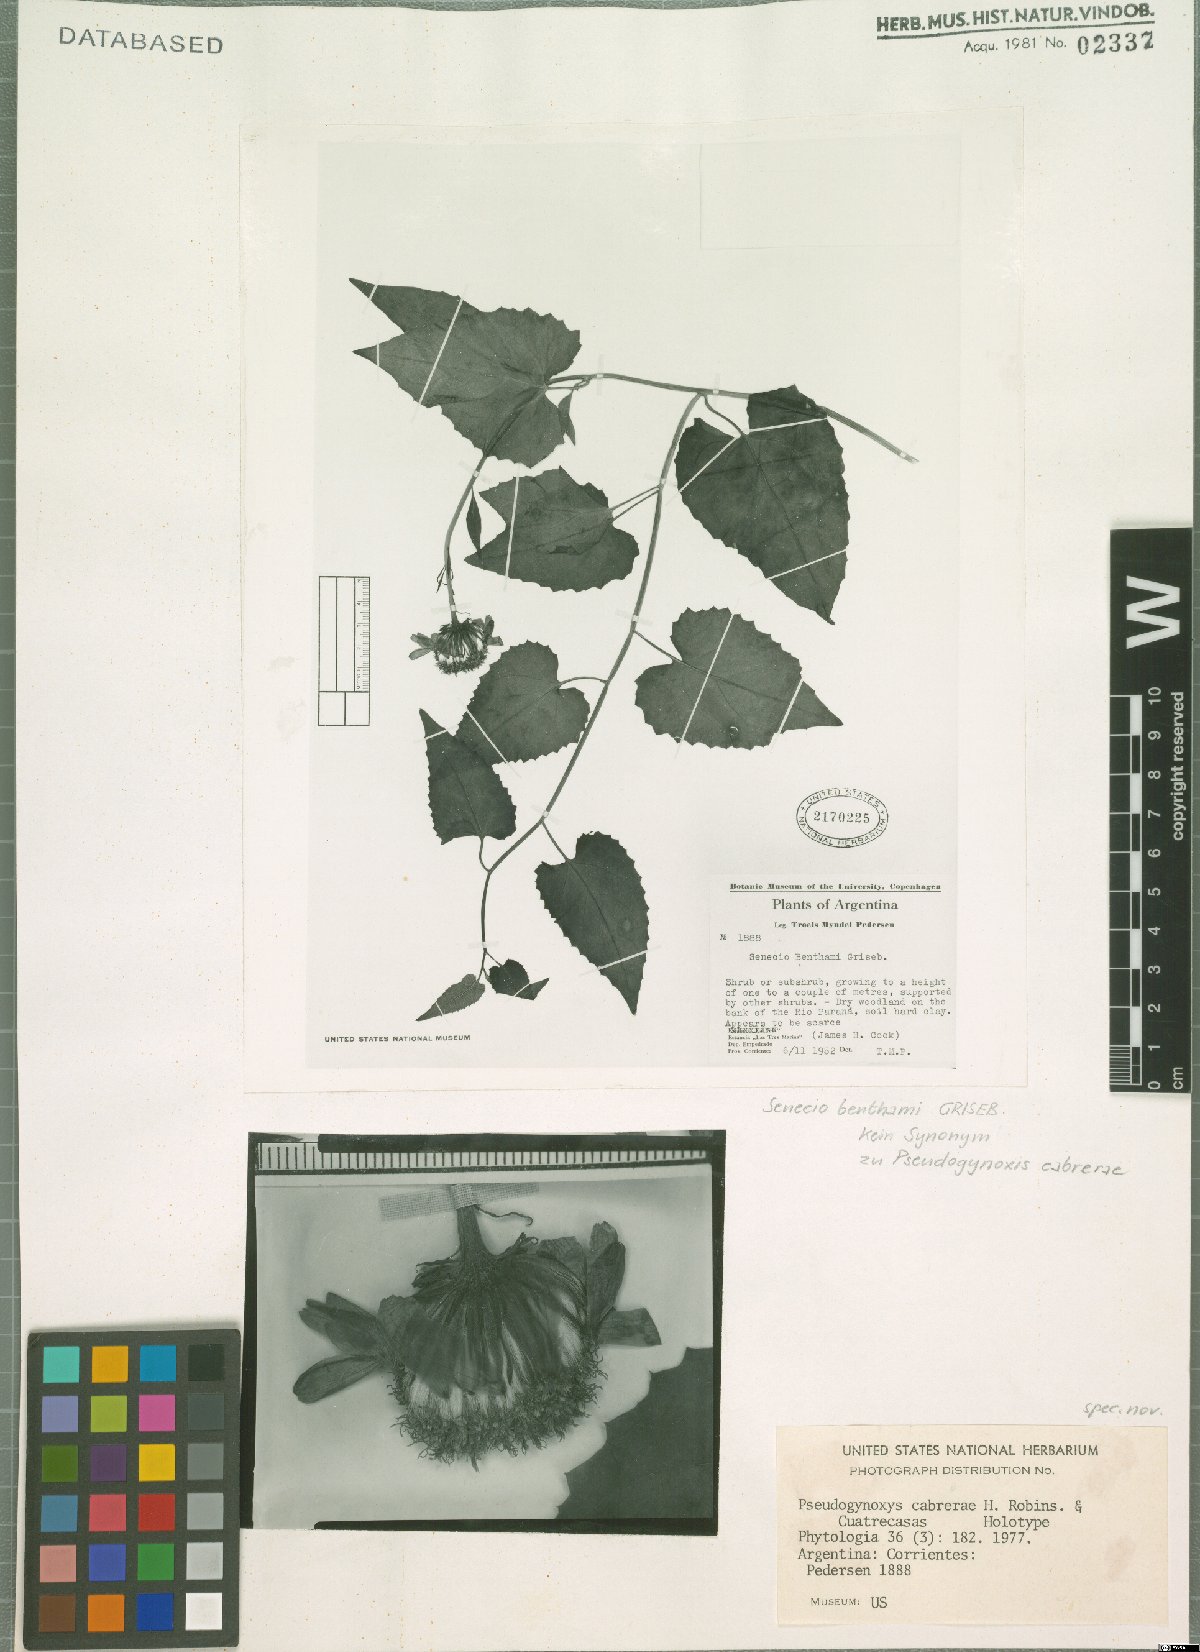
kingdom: Plantae
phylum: Tracheophyta
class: Magnoliopsida
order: Asterales
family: Asteraceae
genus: Pseudogynoxys
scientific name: Pseudogynoxys cabrerae
